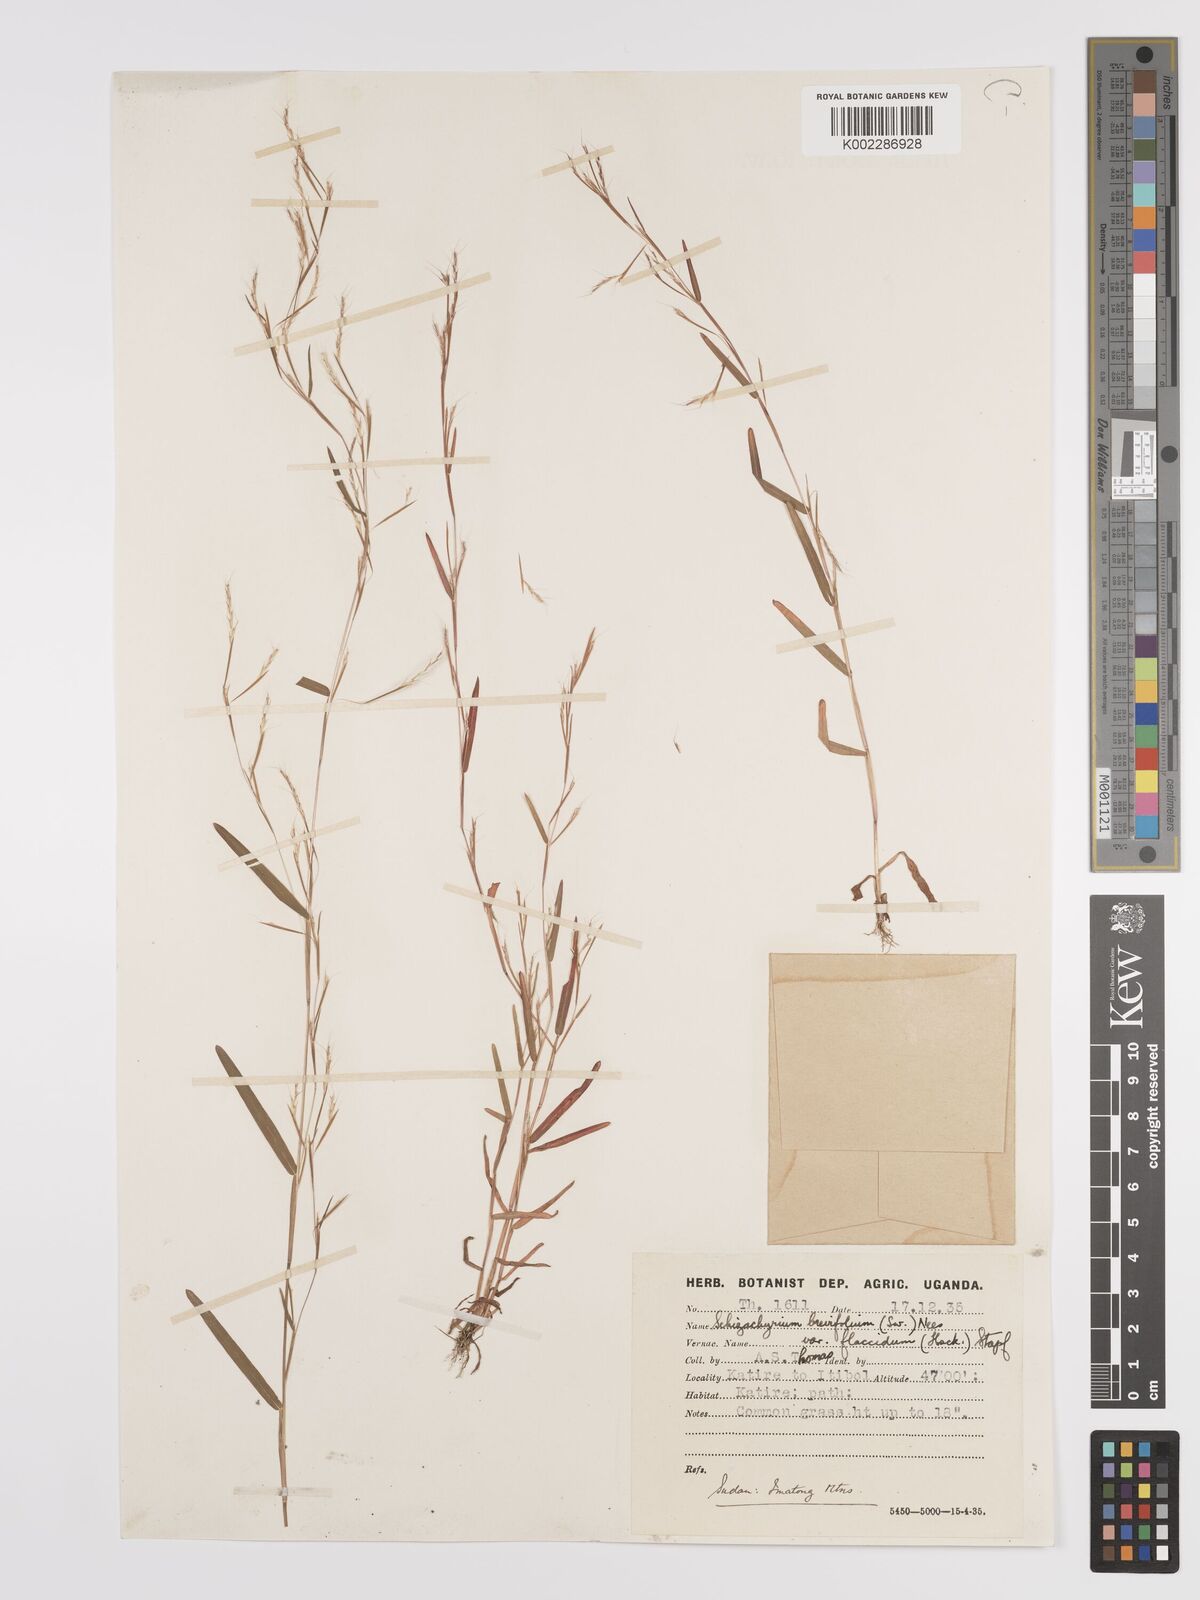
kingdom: Plantae
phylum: Tracheophyta
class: Liliopsida
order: Poales
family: Poaceae
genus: Schizachyrium
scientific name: Schizachyrium brevifolium
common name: Serillo dulce
